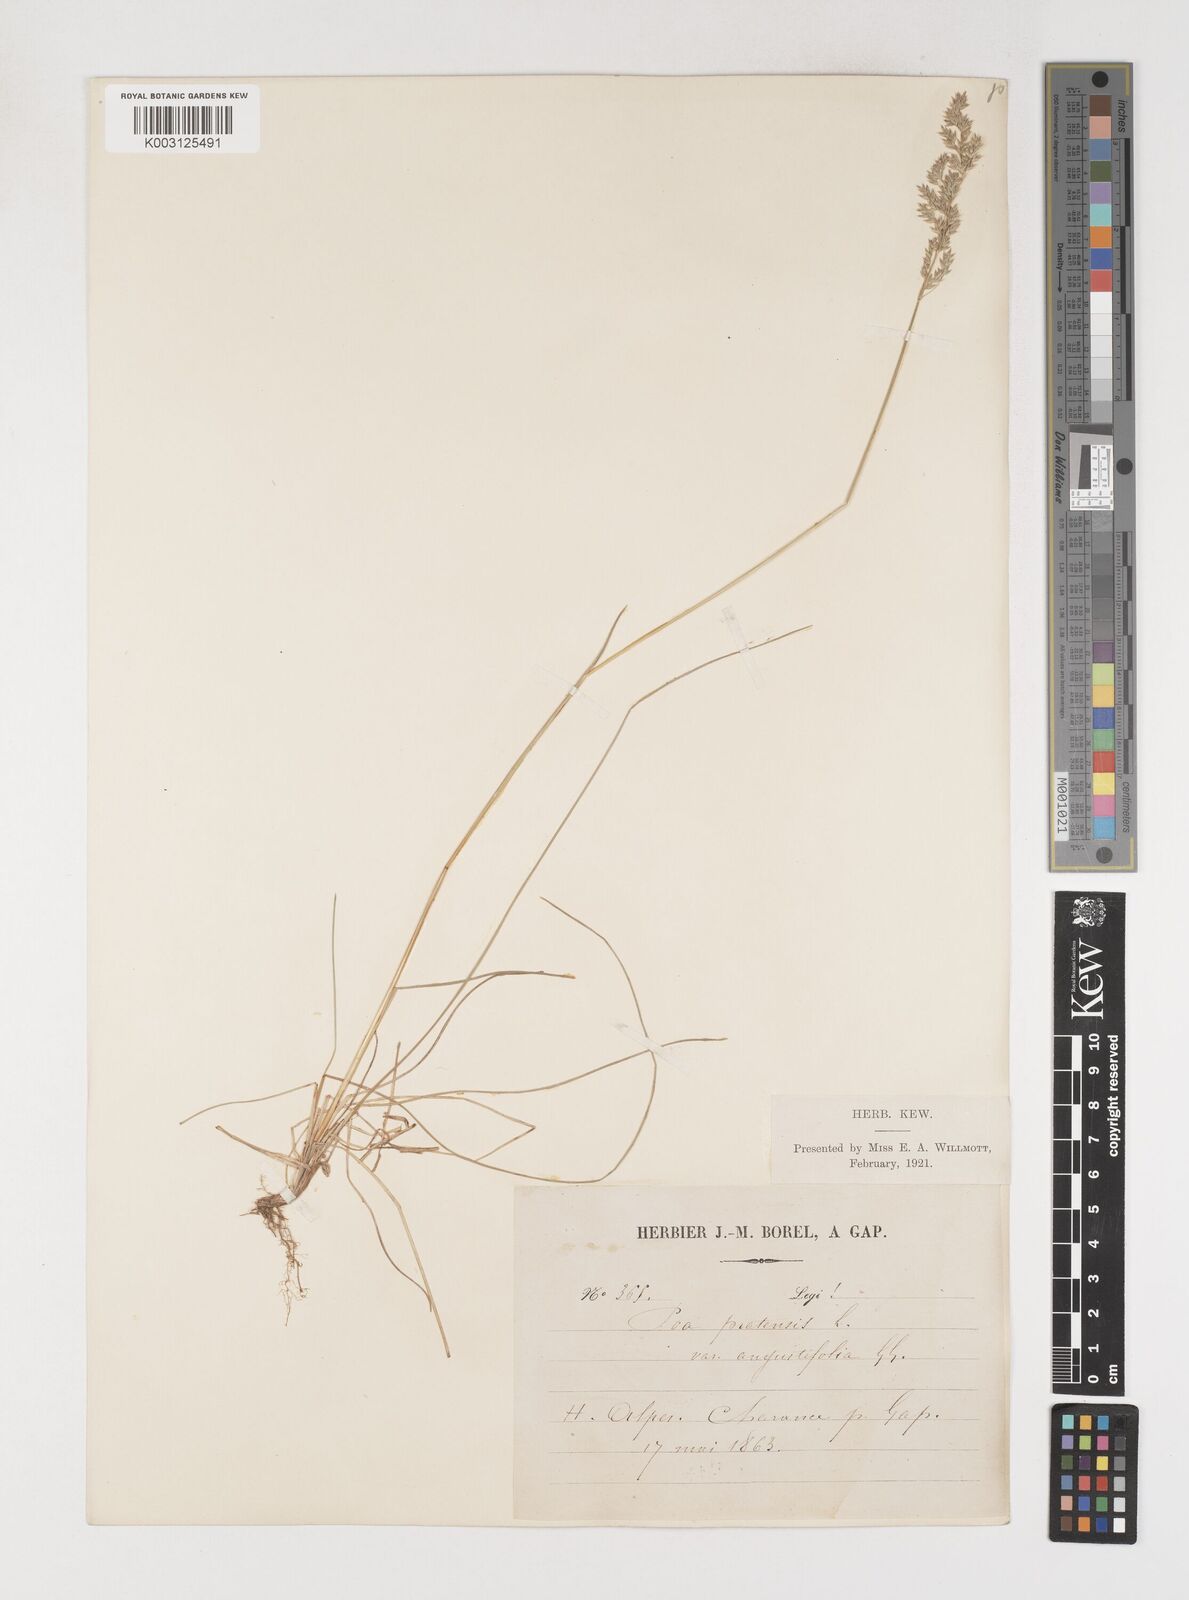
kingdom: Plantae
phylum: Tracheophyta
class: Liliopsida
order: Poales
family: Poaceae
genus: Poa
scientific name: Poa angustifolia
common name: Narrow-leaved meadow-grass
